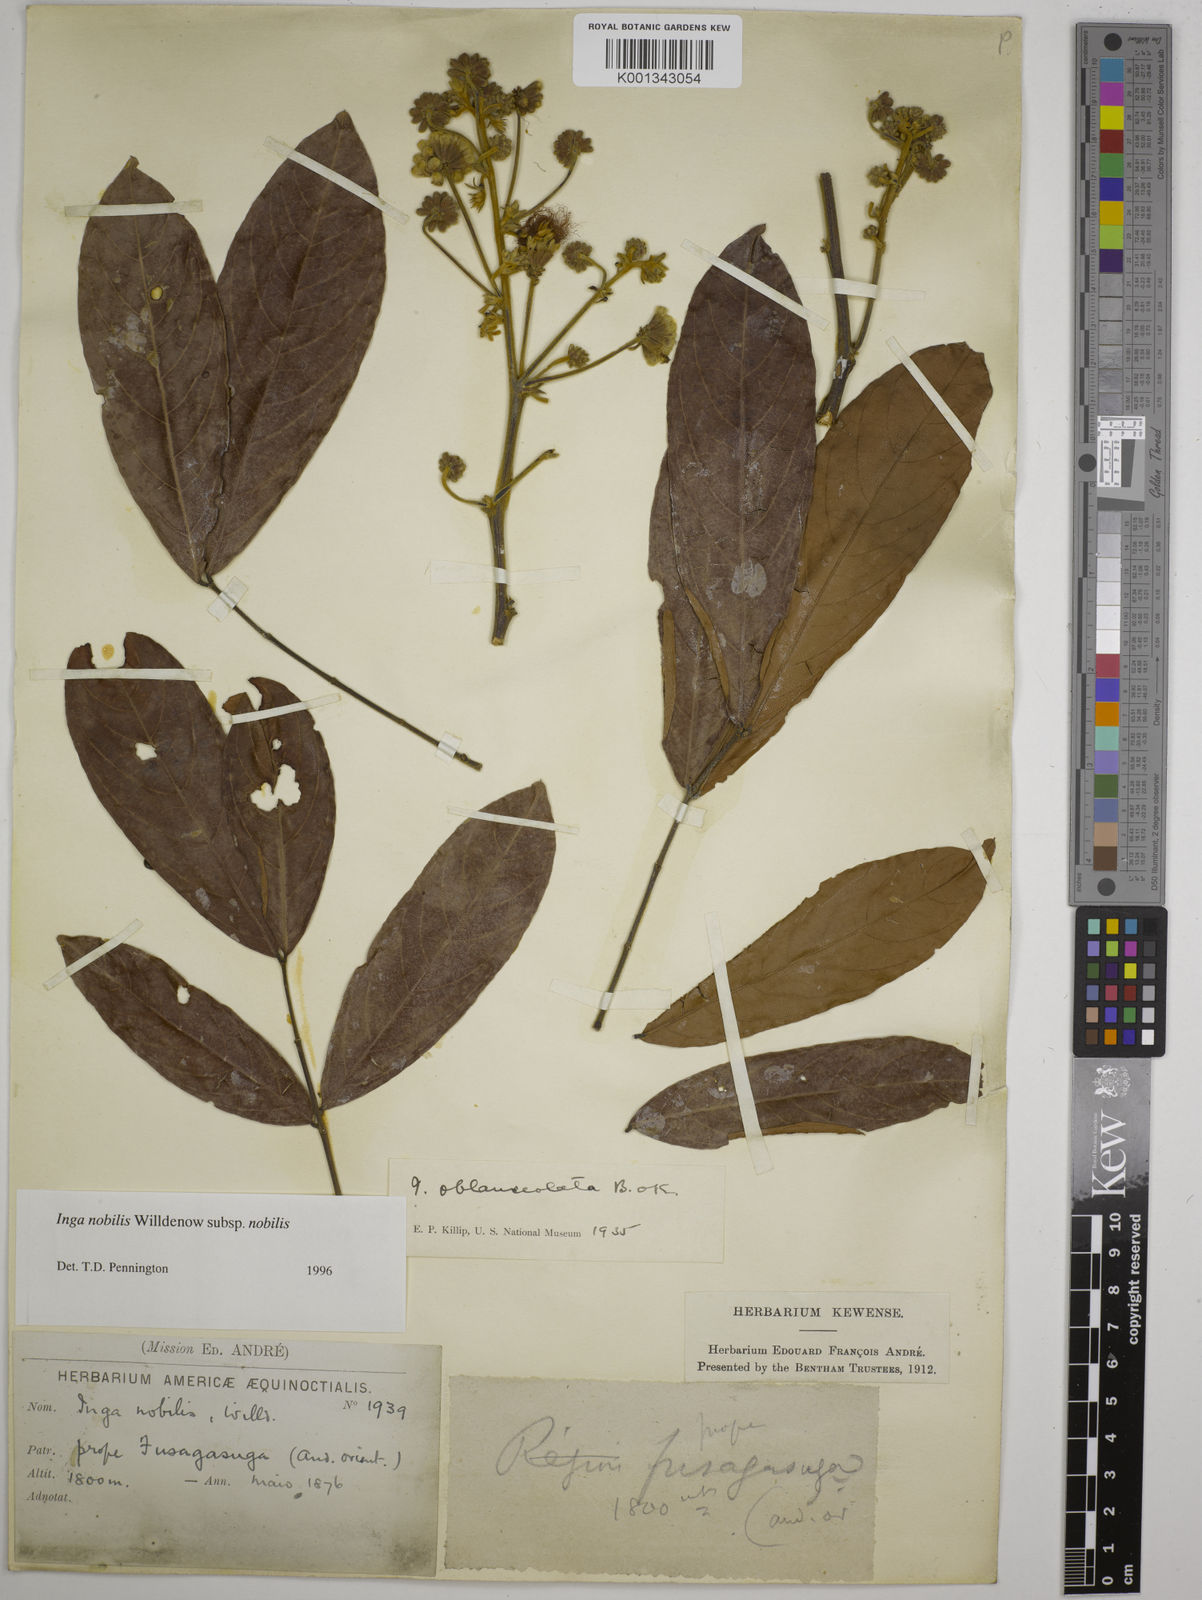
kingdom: Plantae
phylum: Tracheophyta
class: Magnoliopsida
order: Fabales
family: Fabaceae
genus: Inga
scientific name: Inga nobilis
